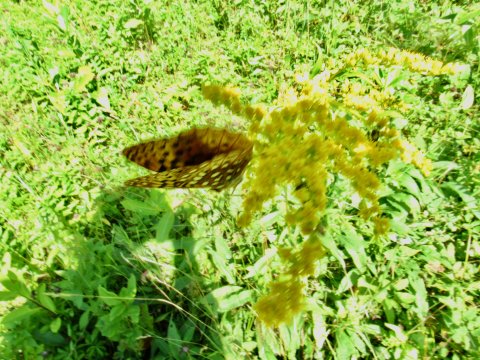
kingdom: Animalia
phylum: Arthropoda
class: Insecta
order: Lepidoptera
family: Nymphalidae
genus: Speyeria
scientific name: Speyeria aphrodite
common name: Aphrodite Fritillary
